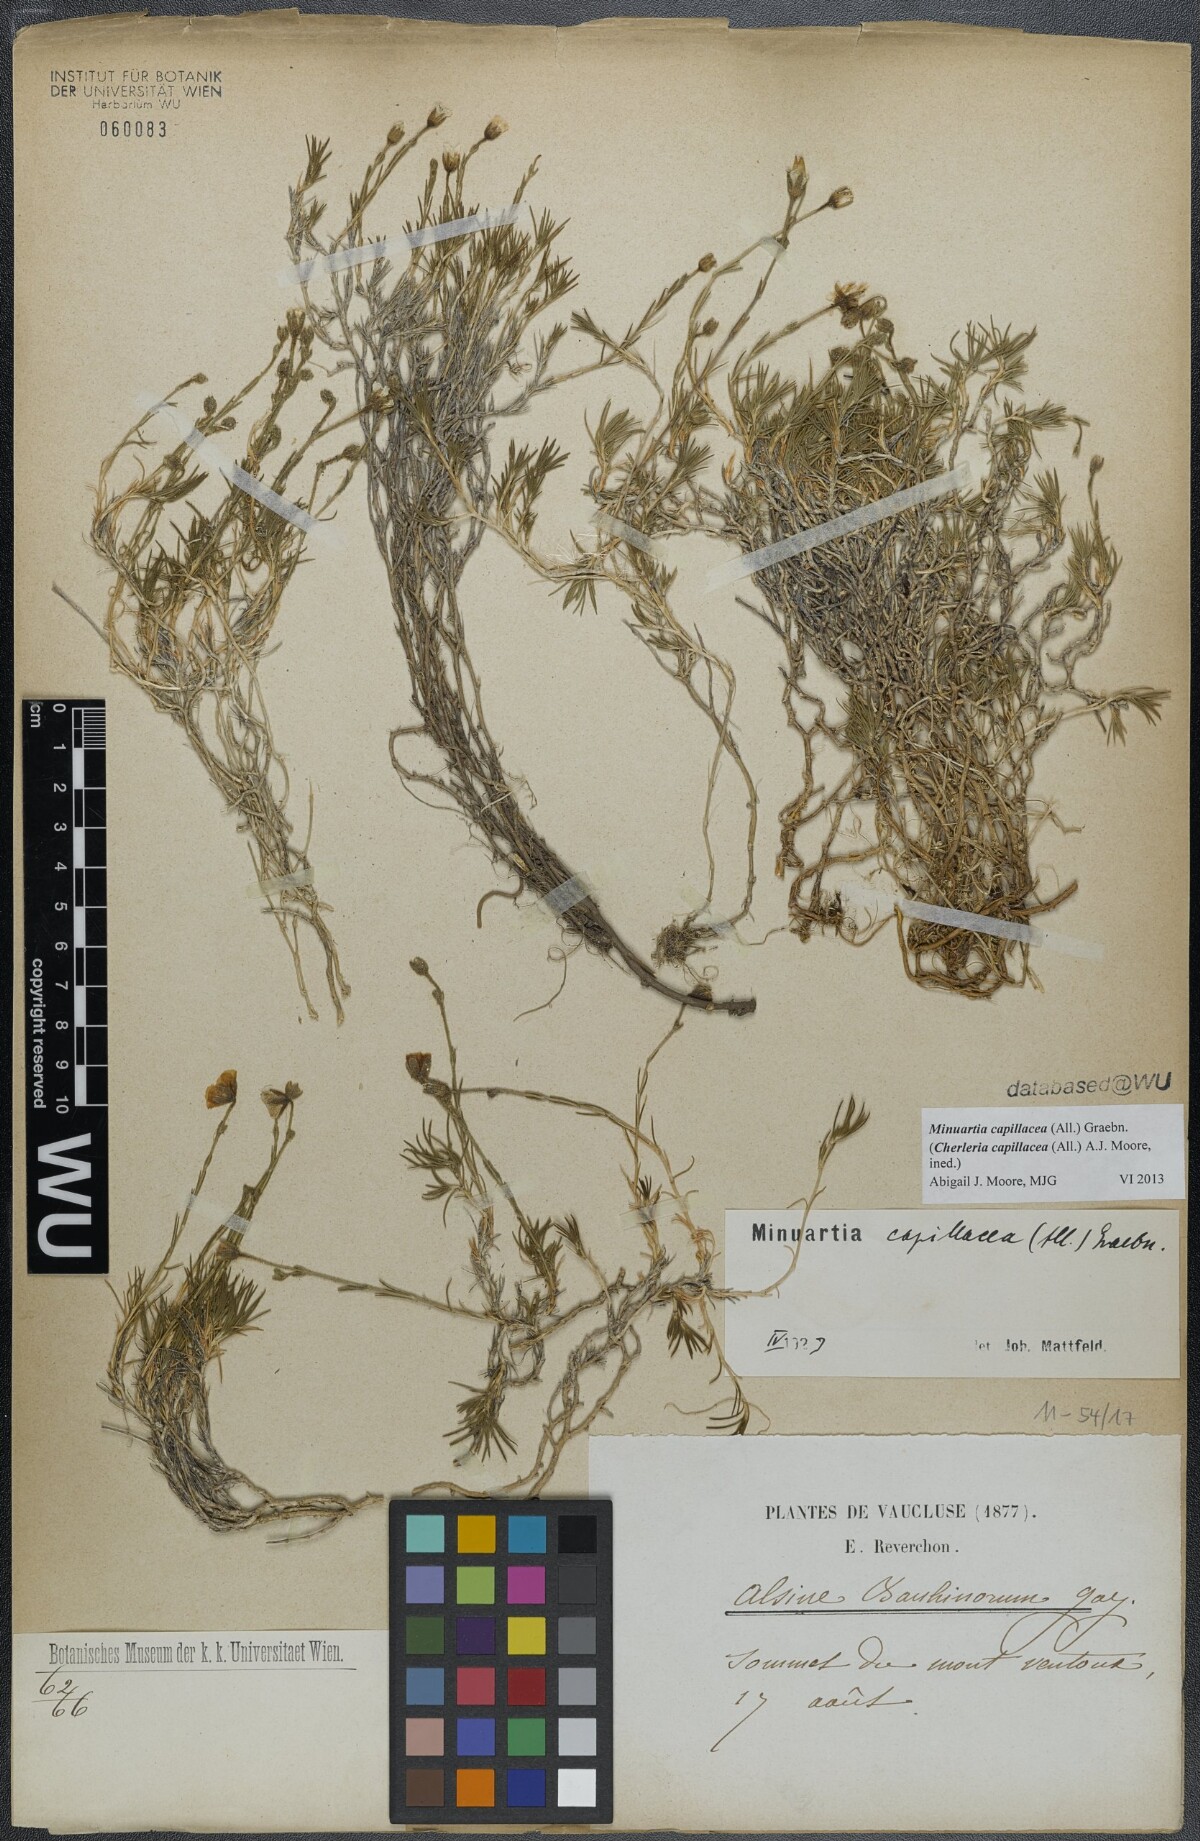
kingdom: Plantae
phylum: Tracheophyta
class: Magnoliopsida
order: Caryophyllales
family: Caryophyllaceae
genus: Cherleria
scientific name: Cherleria capillacea
